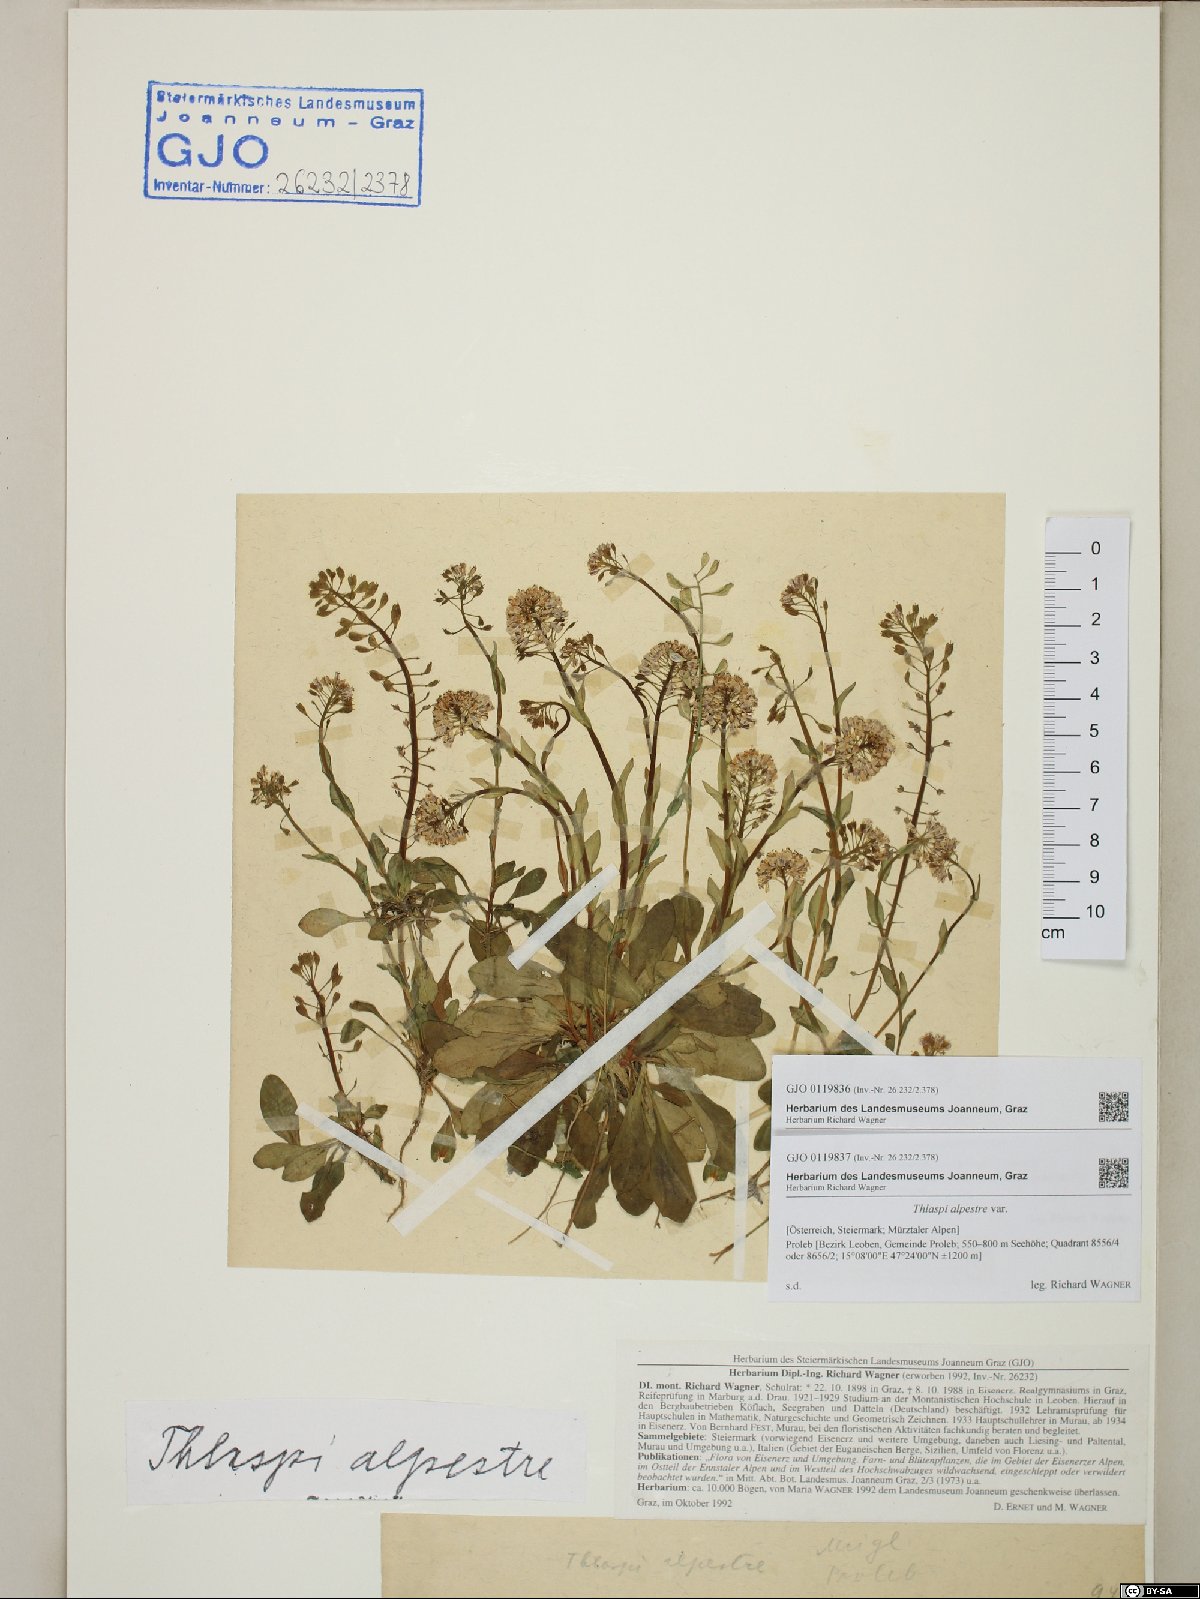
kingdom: Plantae
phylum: Tracheophyta
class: Magnoliopsida
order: Brassicales
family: Brassicaceae
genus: Noccaea
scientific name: Noccaea caerulescens
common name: Alpine pennycress
